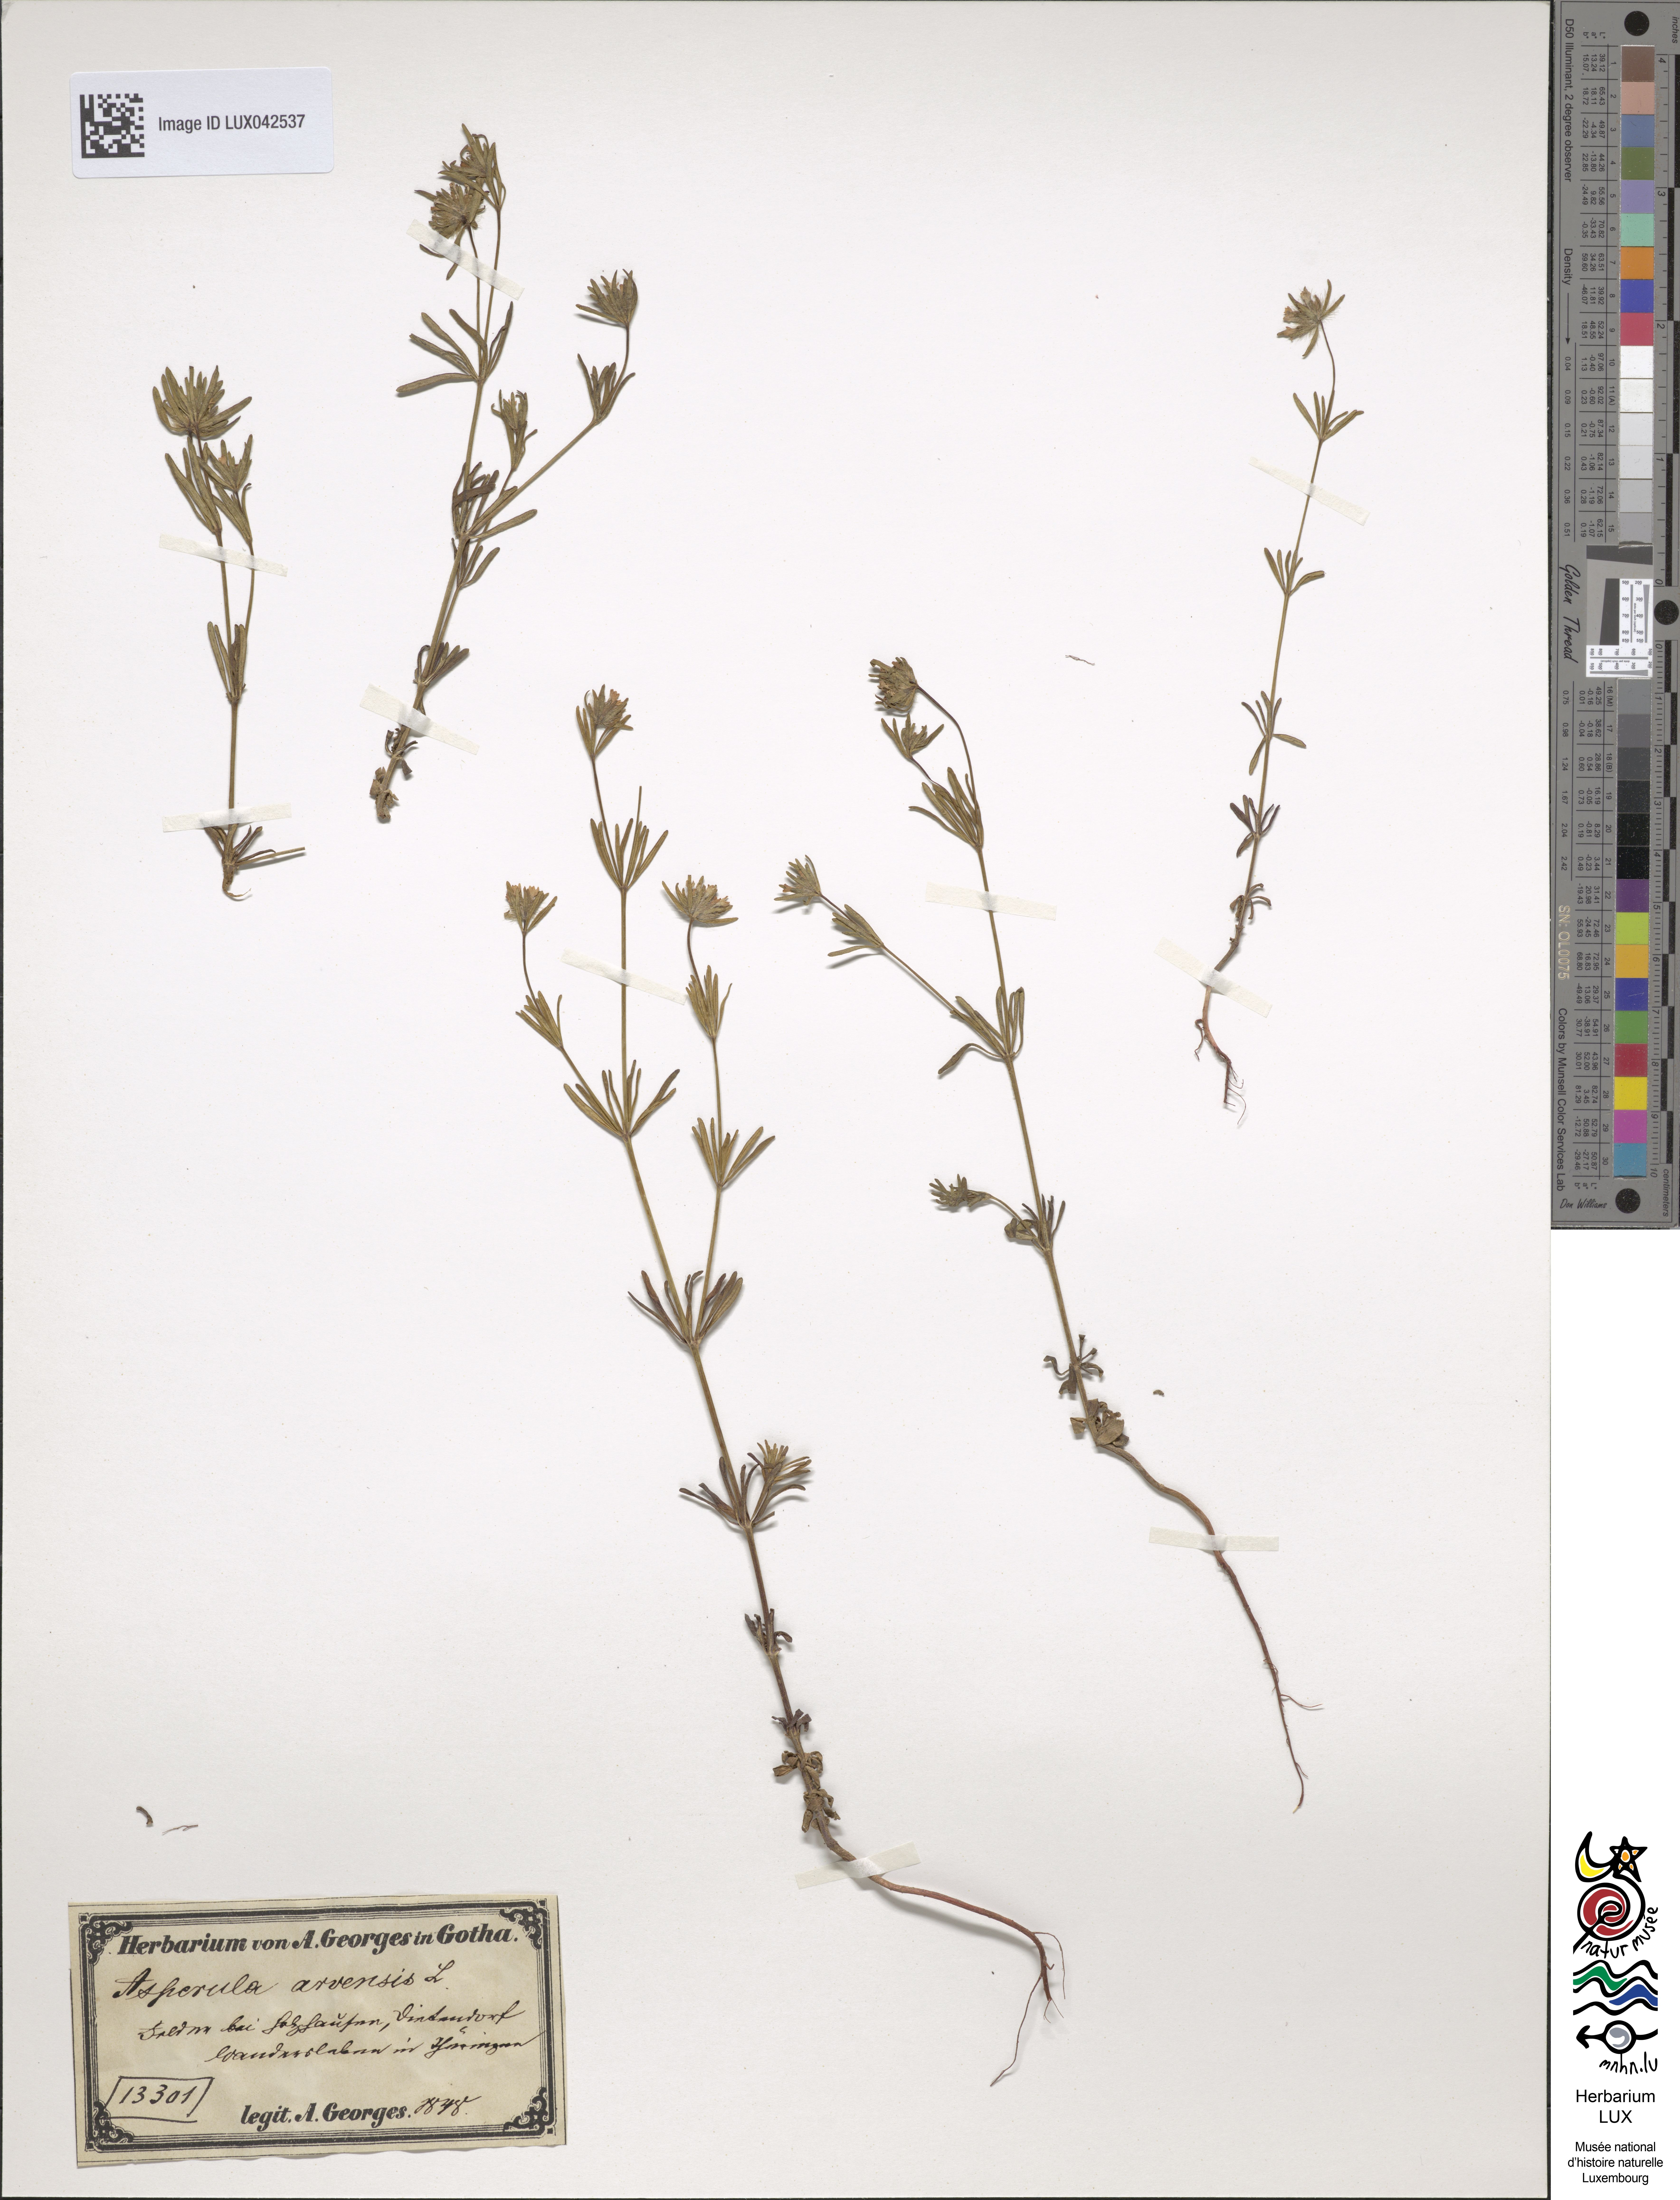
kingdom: Plantae
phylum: Tracheophyta
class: Magnoliopsida
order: Gentianales
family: Rubiaceae
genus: Asperula
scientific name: Asperula arvensis
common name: Blue woodruff
